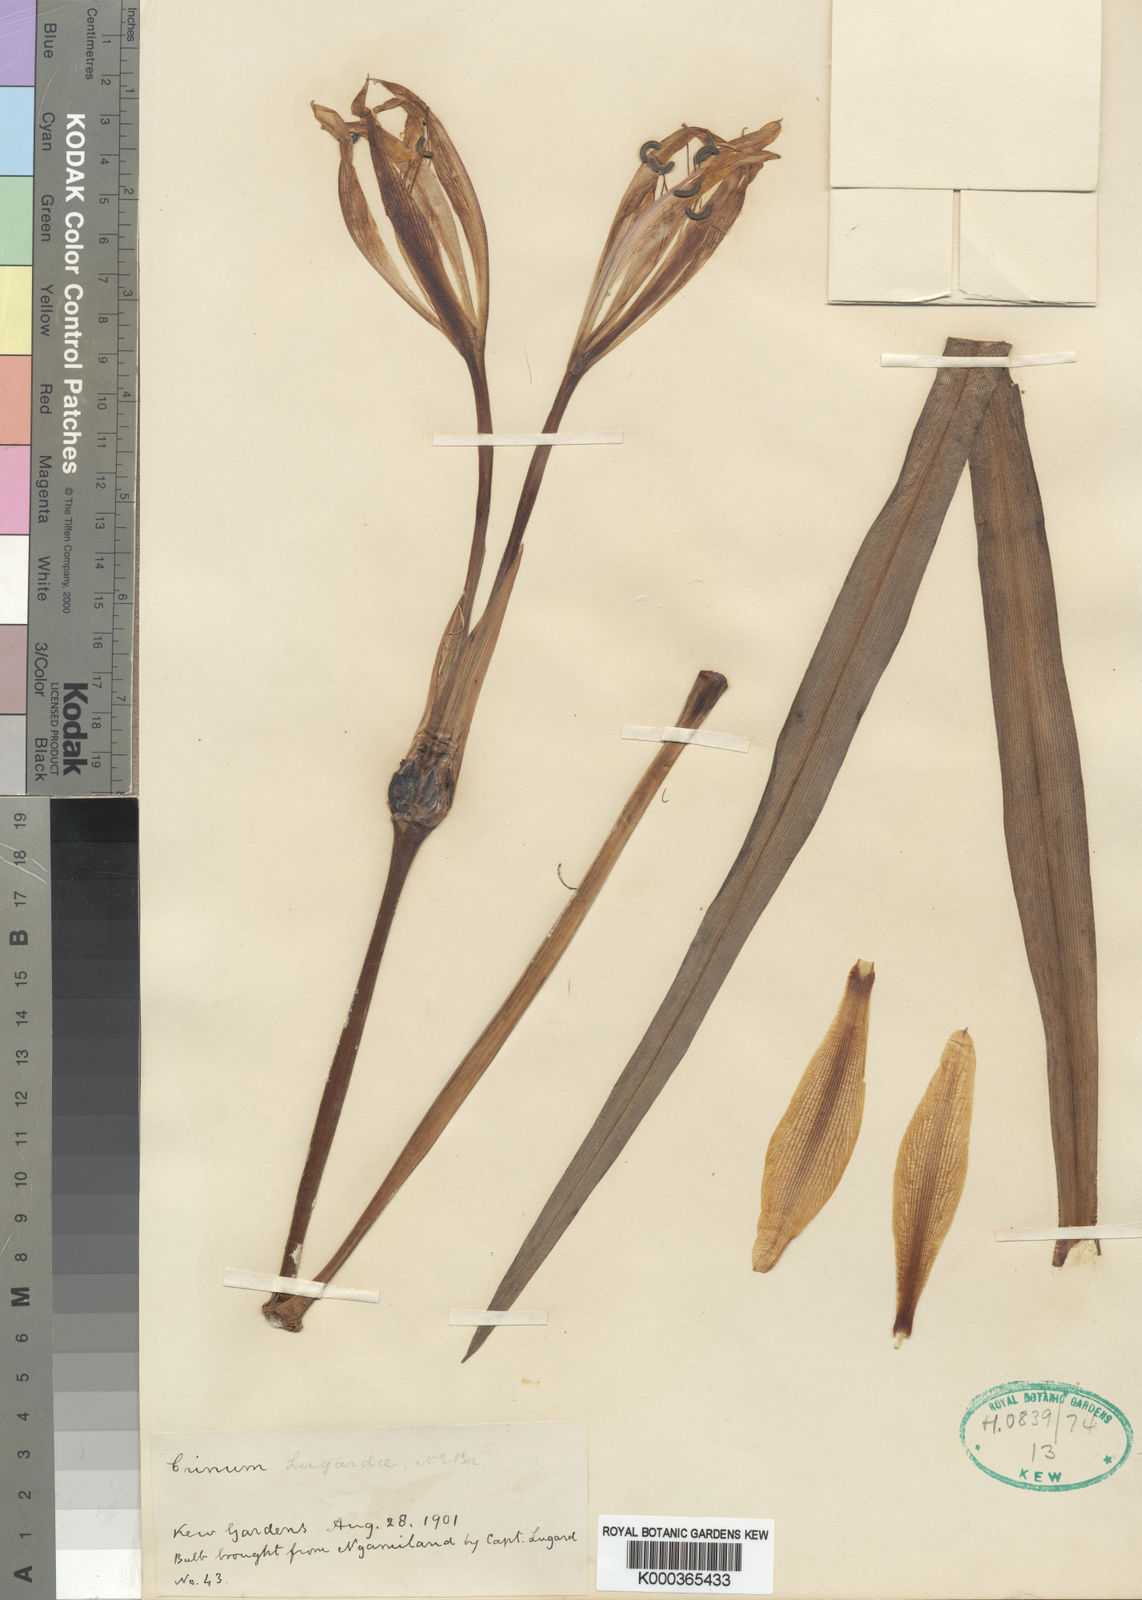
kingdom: Plantae
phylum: Tracheophyta
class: Liliopsida
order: Asparagales
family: Amaryllidaceae
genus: Crinum
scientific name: Crinum lugardiae
